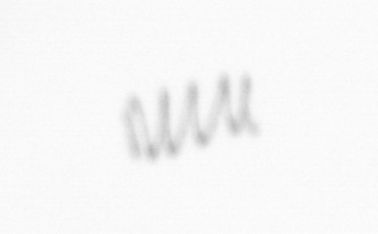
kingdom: Chromista
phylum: Ochrophyta
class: Bacillariophyceae
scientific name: Bacillariophyceae
